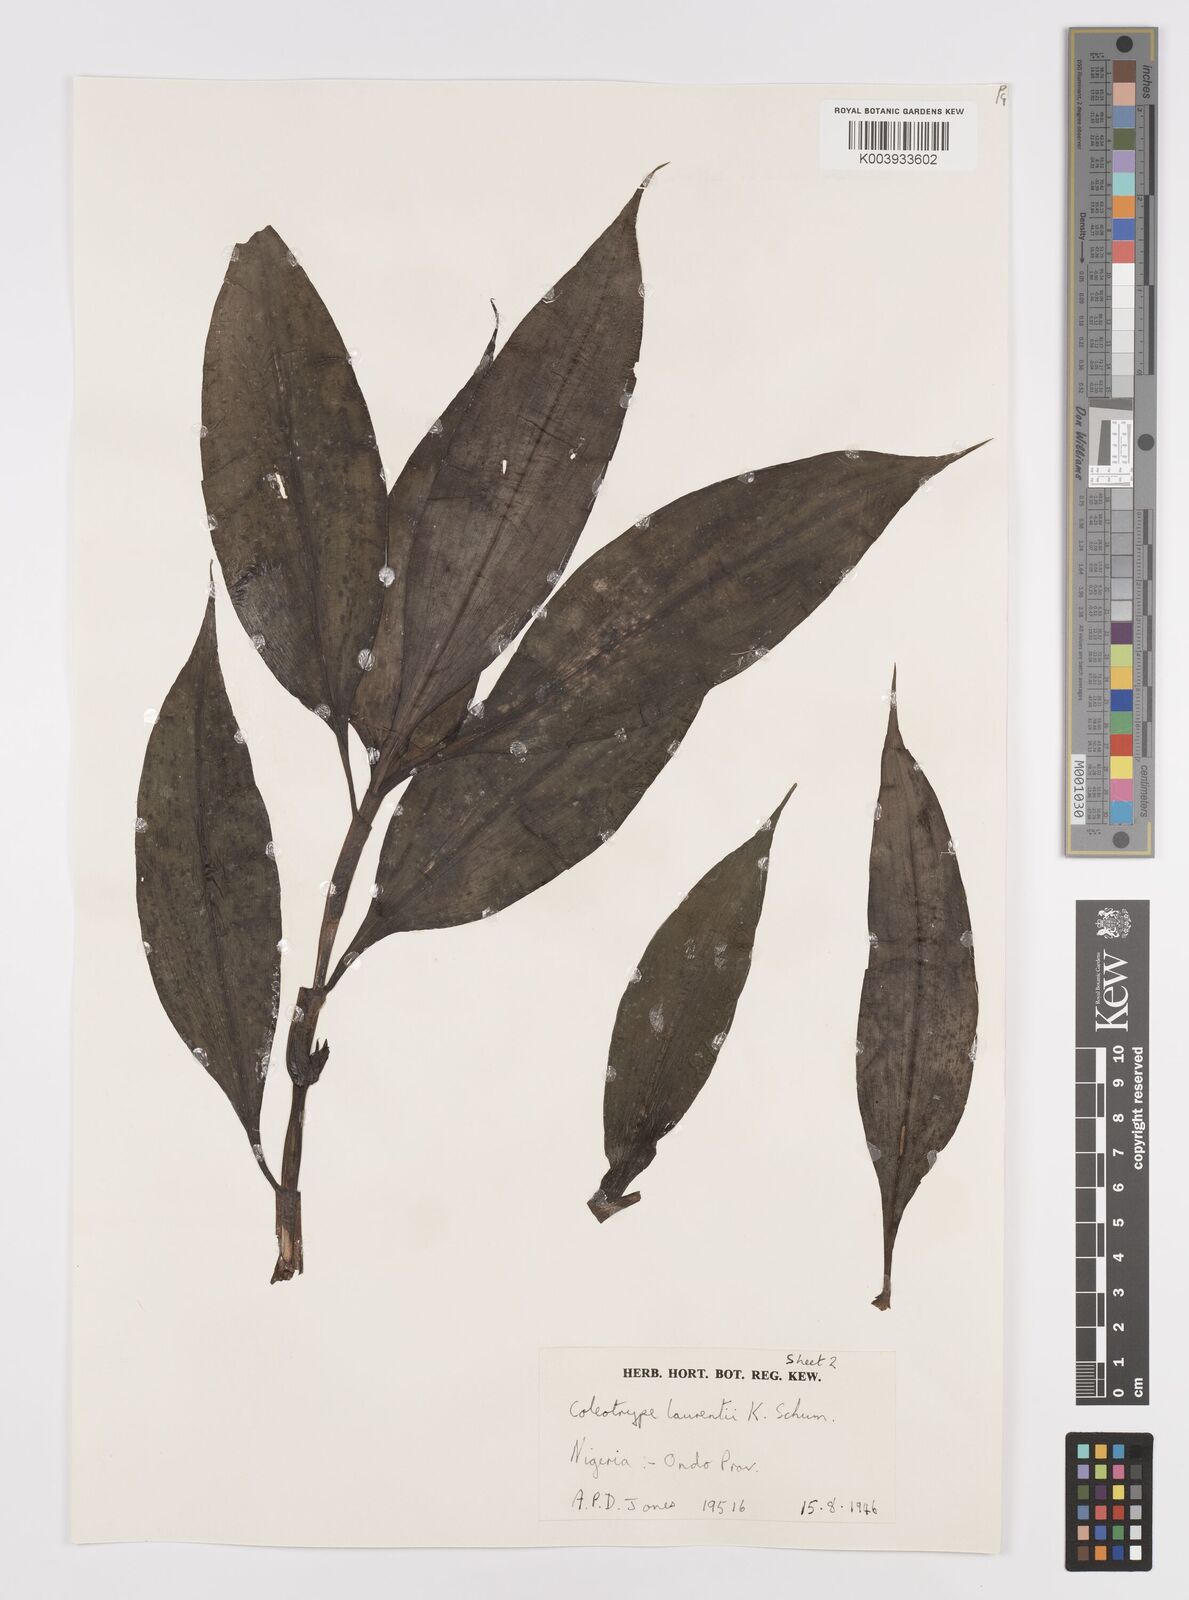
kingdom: Plantae
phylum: Tracheophyta
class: Liliopsida
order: Commelinales
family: Commelinaceae
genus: Coleotrype
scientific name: Coleotrype laurentii
